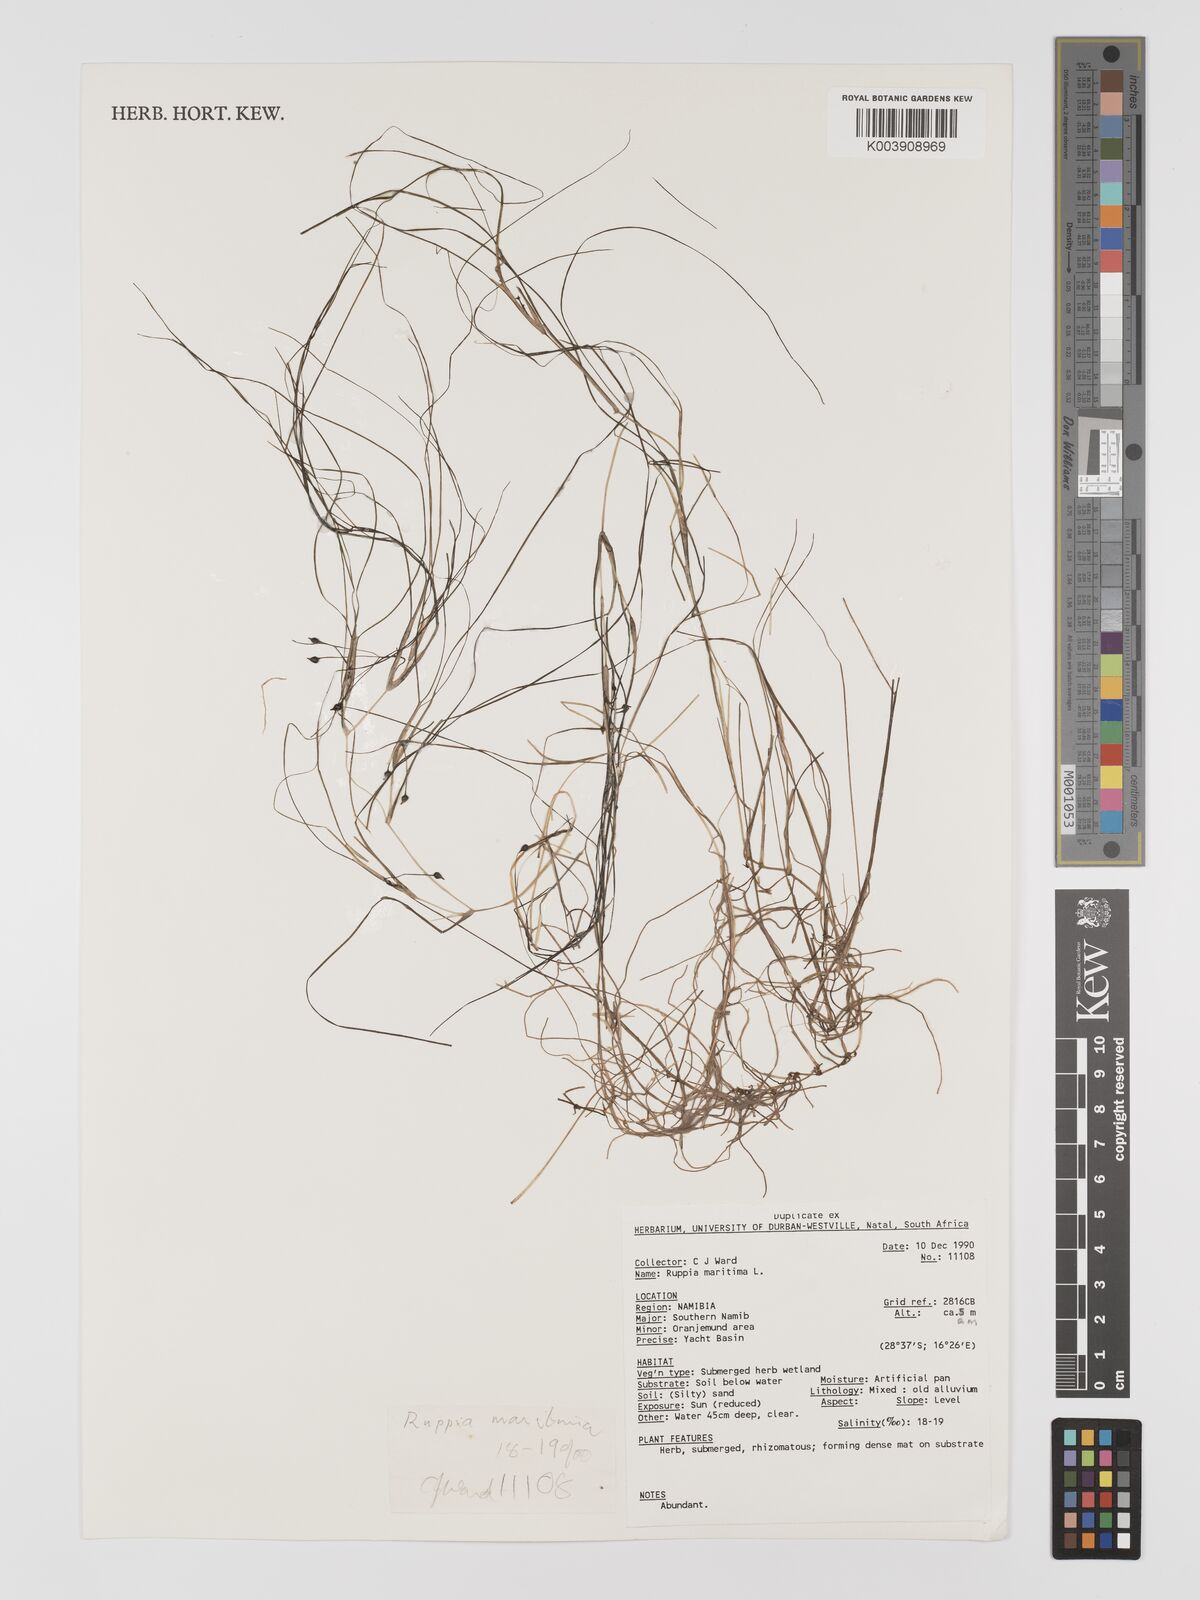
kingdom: Plantae
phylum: Tracheophyta
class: Liliopsida
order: Alismatales
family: Ruppiaceae
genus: Ruppia
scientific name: Ruppia maritima
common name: Beaked tasselweed
